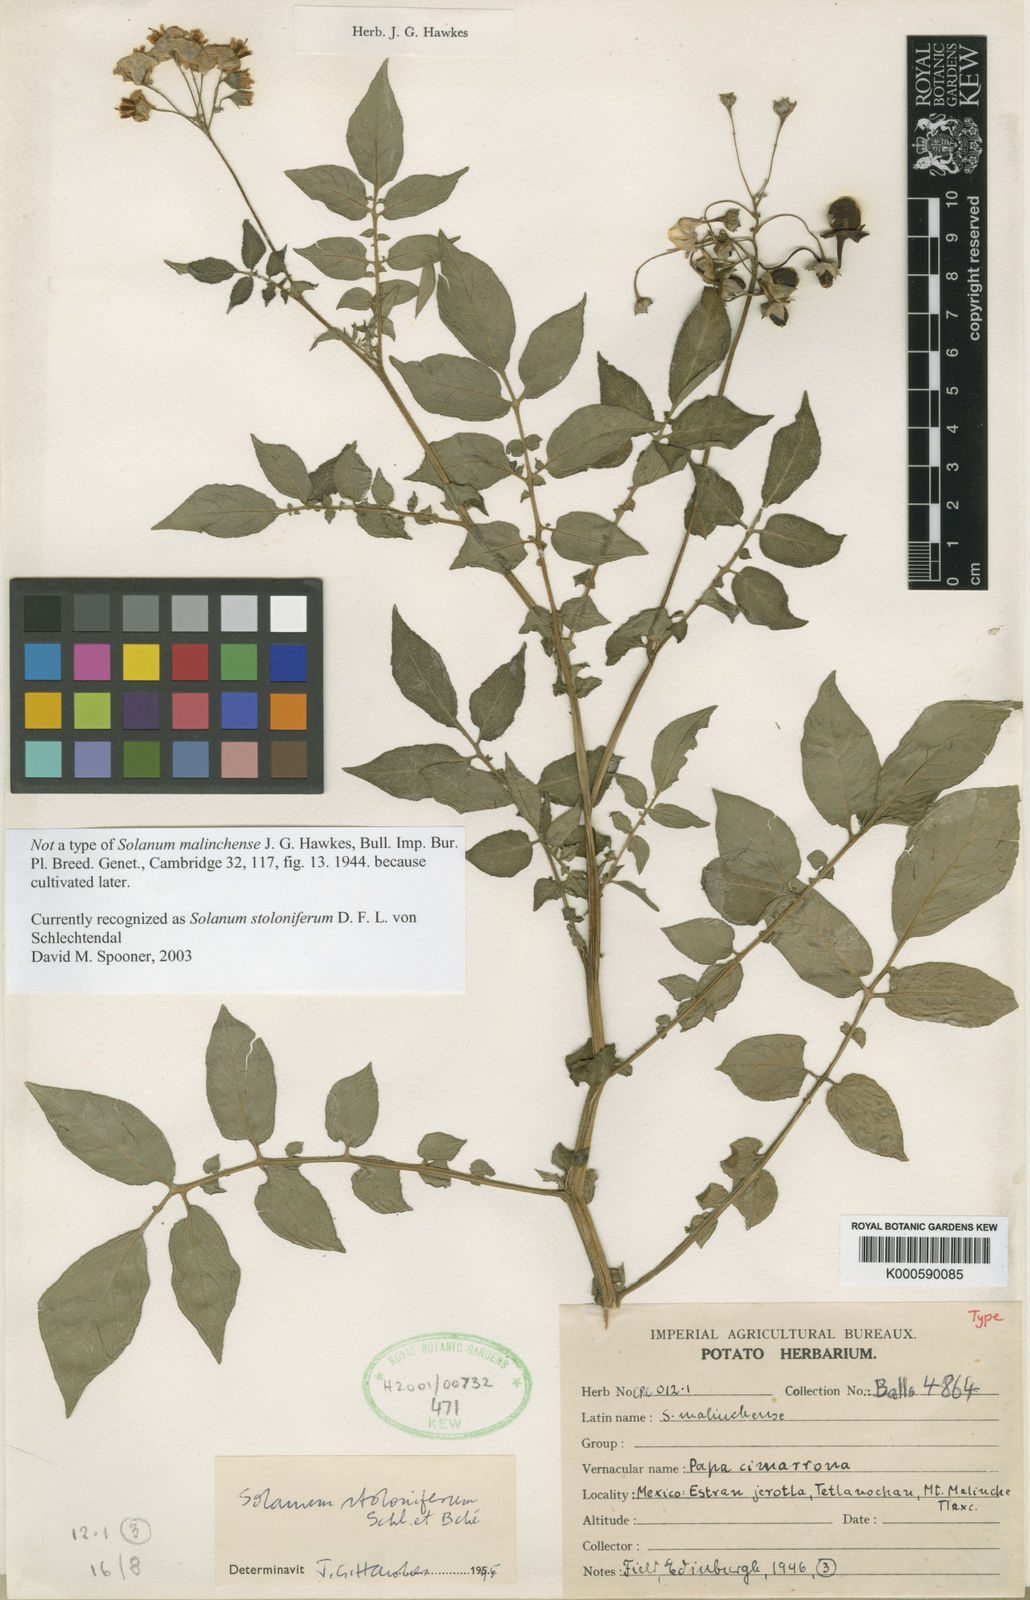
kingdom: Plantae
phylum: Tracheophyta
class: Magnoliopsida
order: Solanales
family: Solanaceae
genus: Solanum
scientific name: Solanum stoloniferum
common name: Fendler's nighshade
